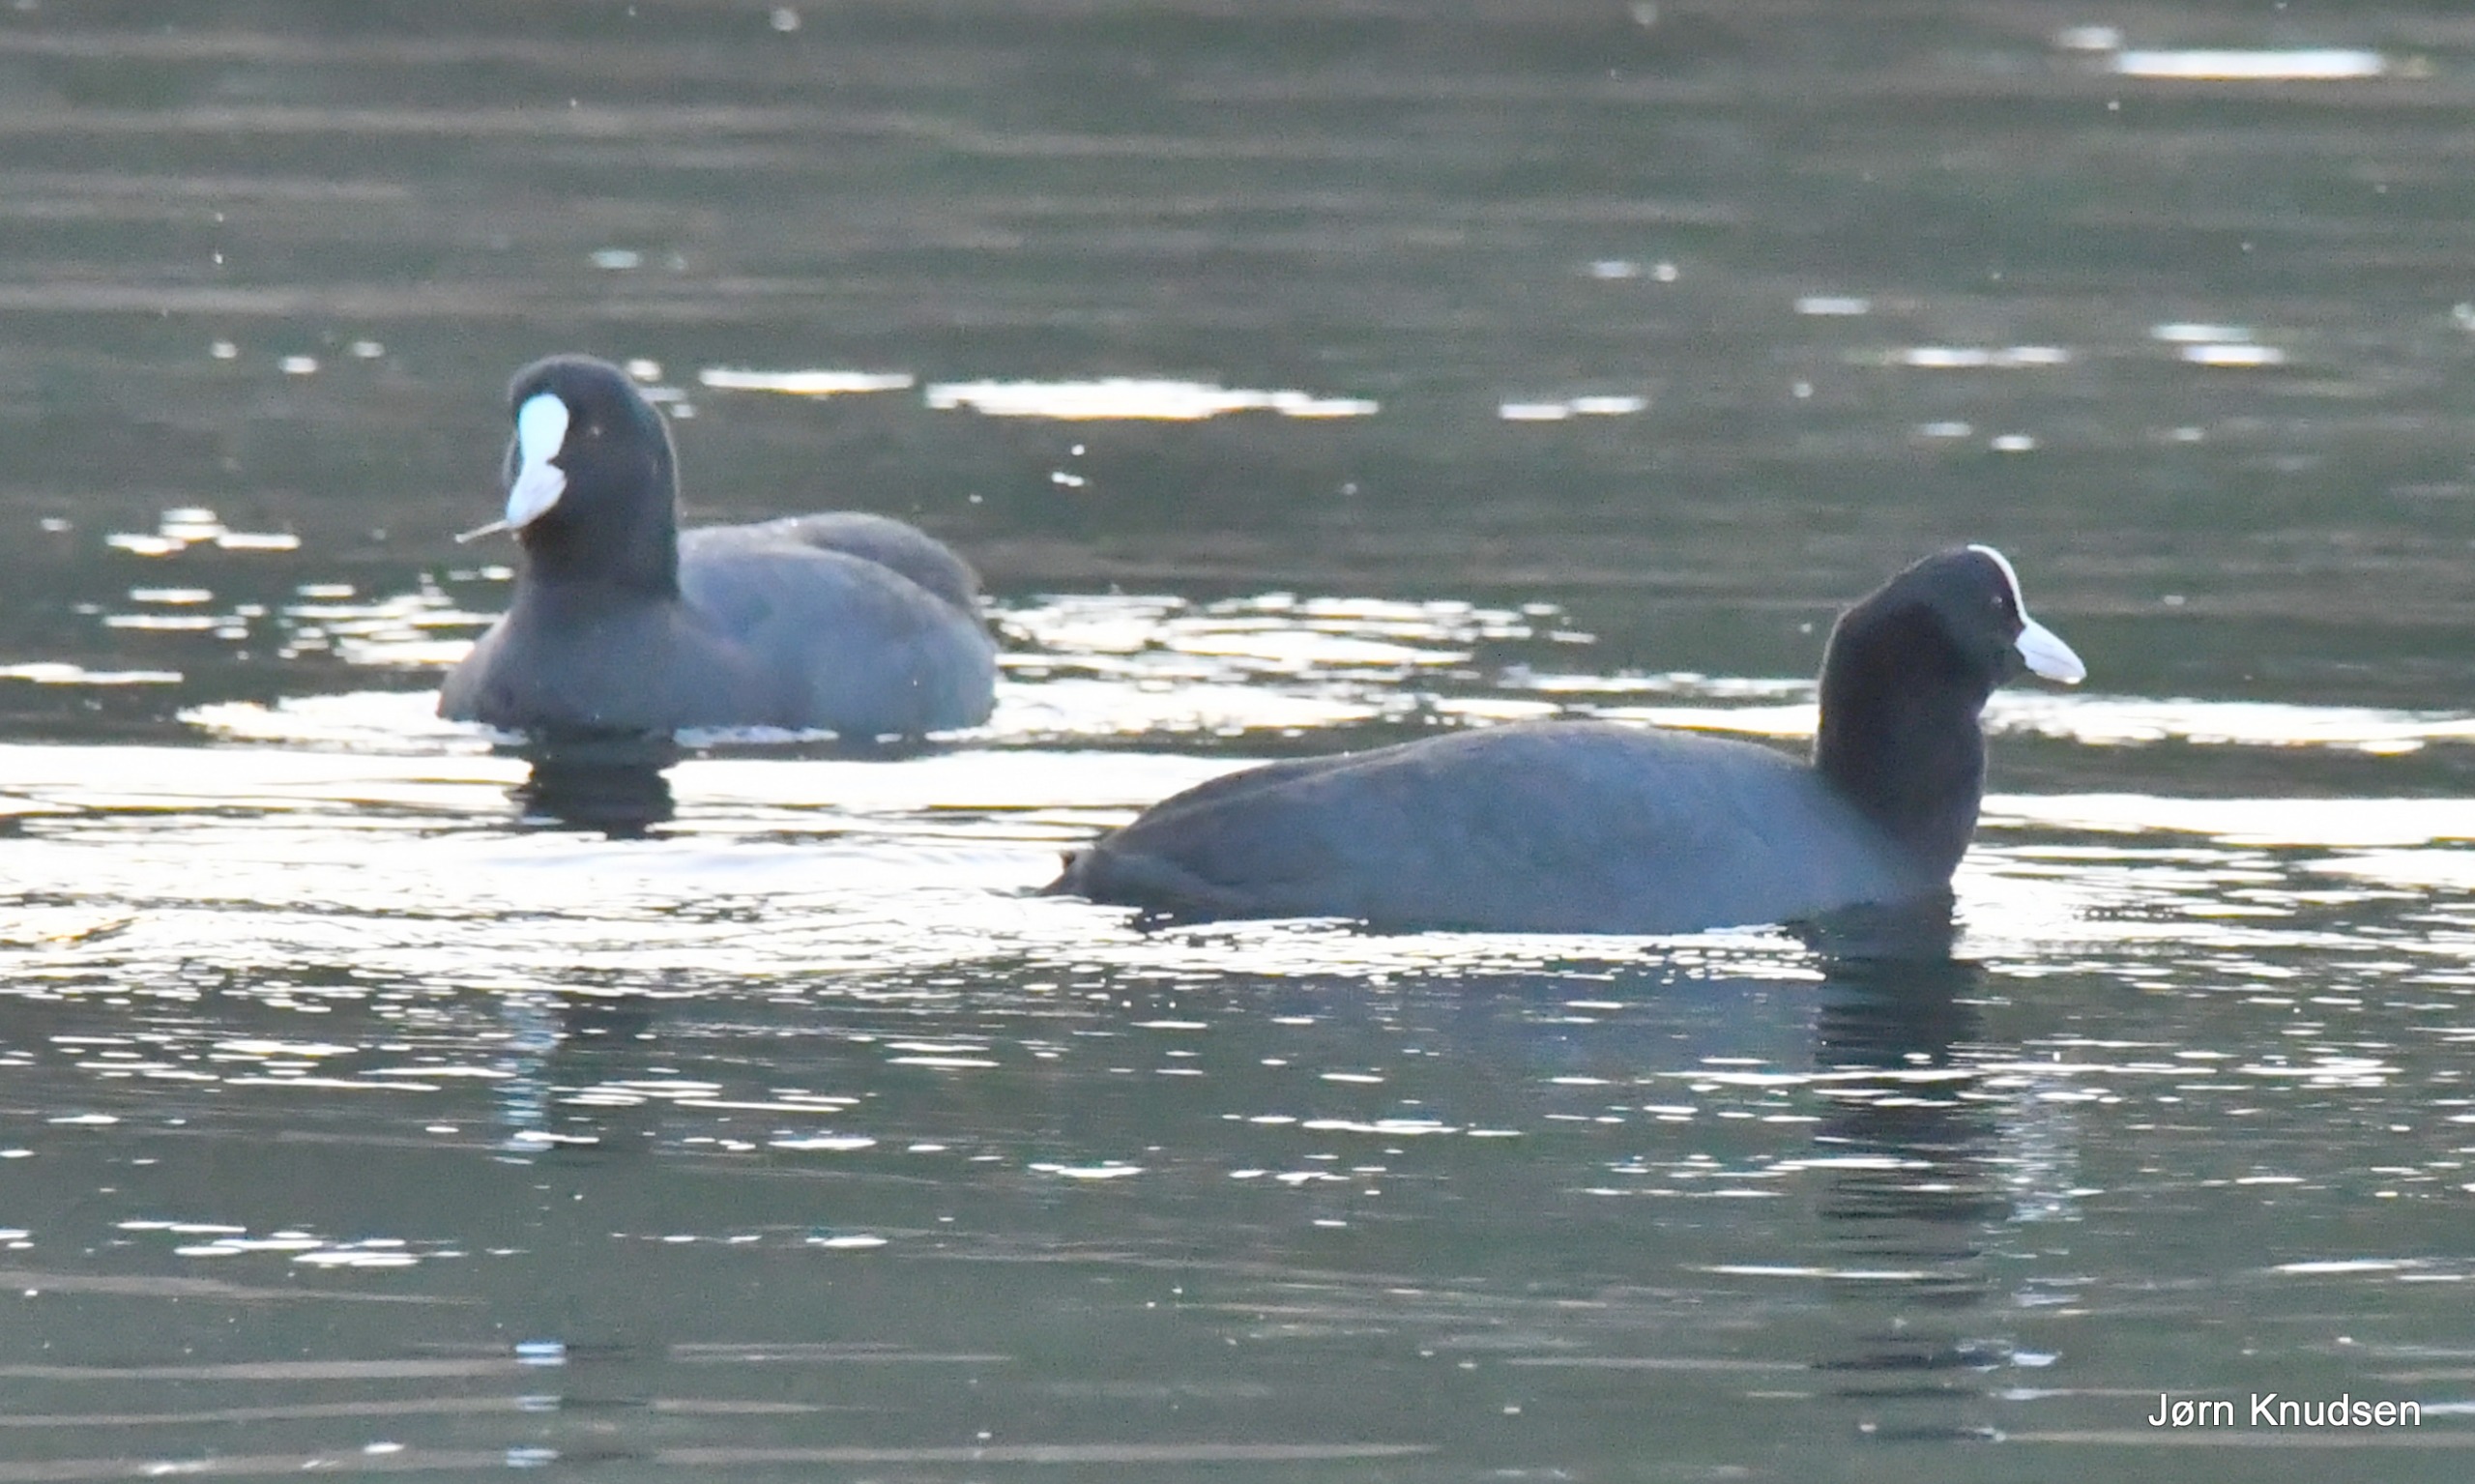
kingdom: Animalia
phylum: Chordata
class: Aves
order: Gruiformes
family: Rallidae
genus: Fulica
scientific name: Fulica atra
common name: Blishøne
